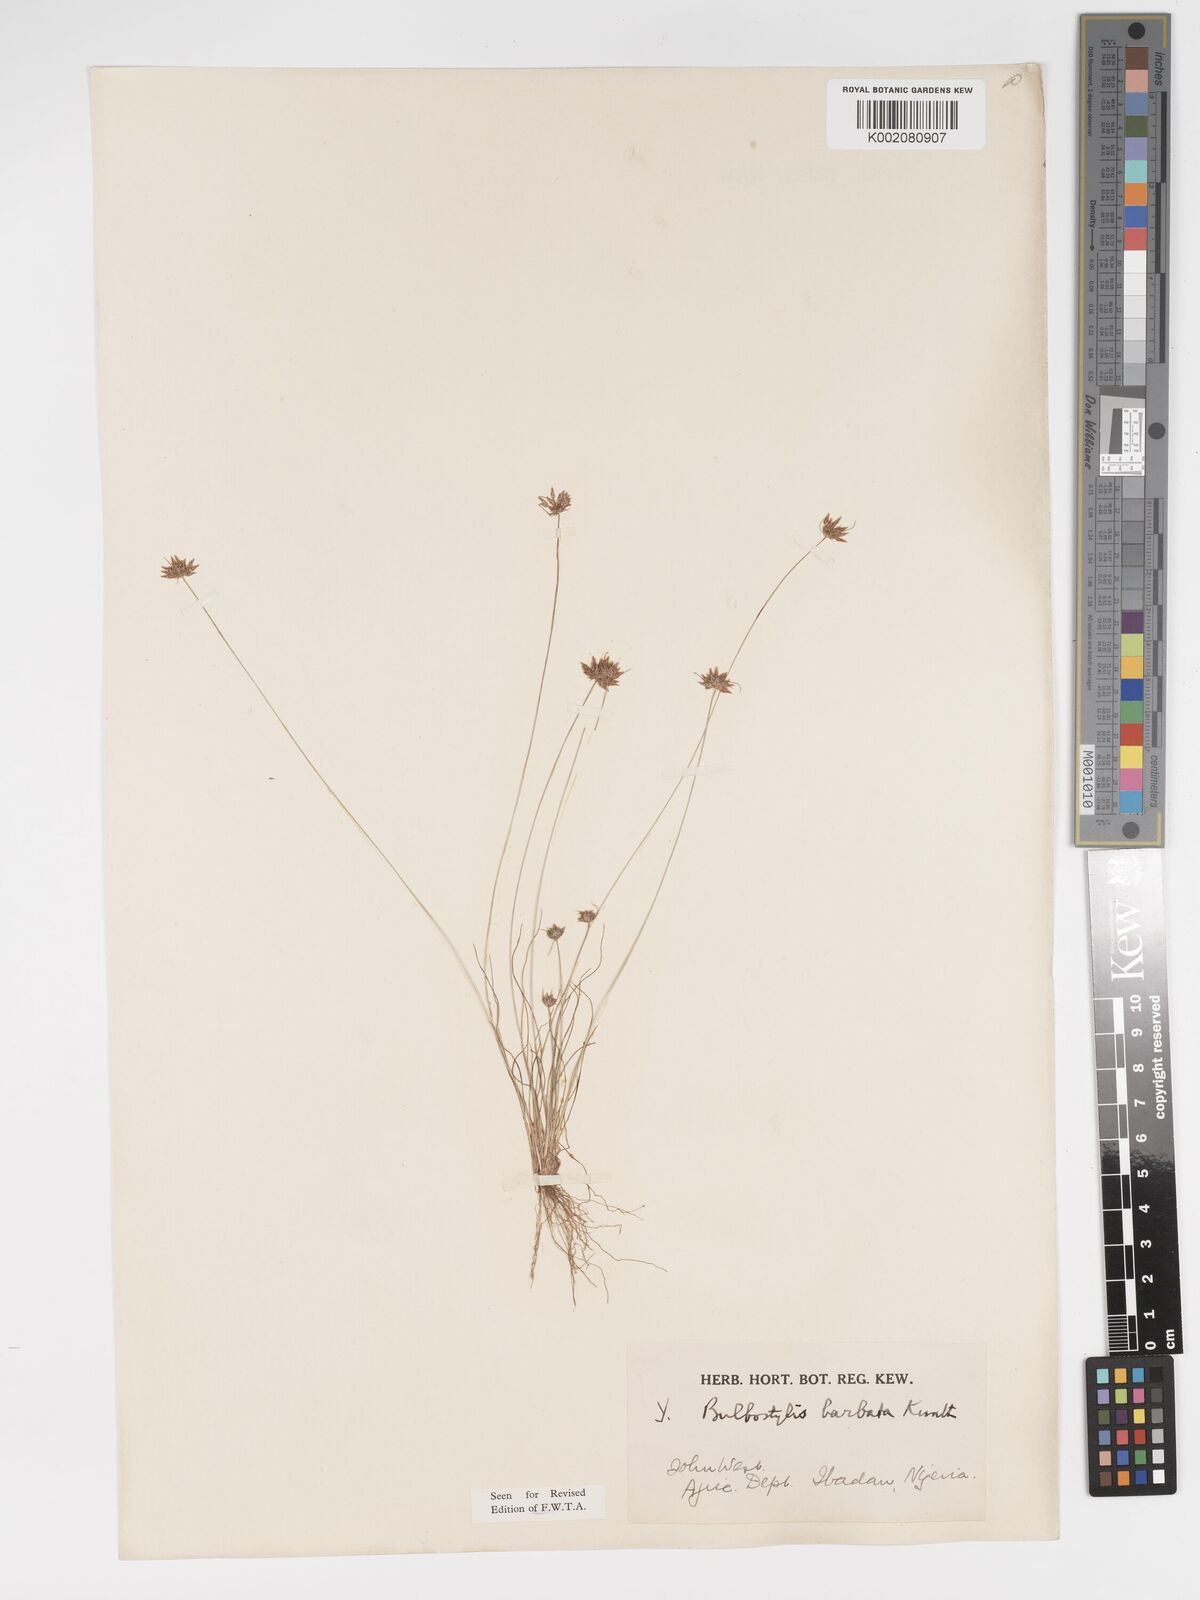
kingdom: Plantae
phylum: Tracheophyta
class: Liliopsida
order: Poales
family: Cyperaceae
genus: Bulbostylis
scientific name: Bulbostylis barbata
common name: Watergrass
